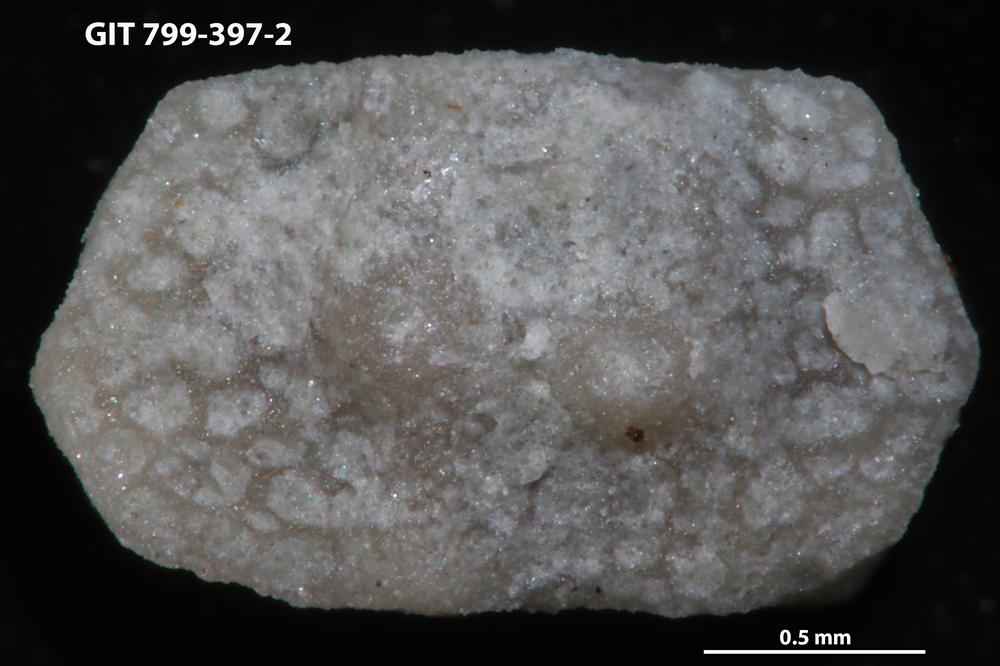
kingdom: Animalia
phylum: Echinodermata
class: Echinoidea
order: Bothriocidaroida
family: Bothriocidaridae
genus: Neobothriocidaris
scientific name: Neobothriocidaris
